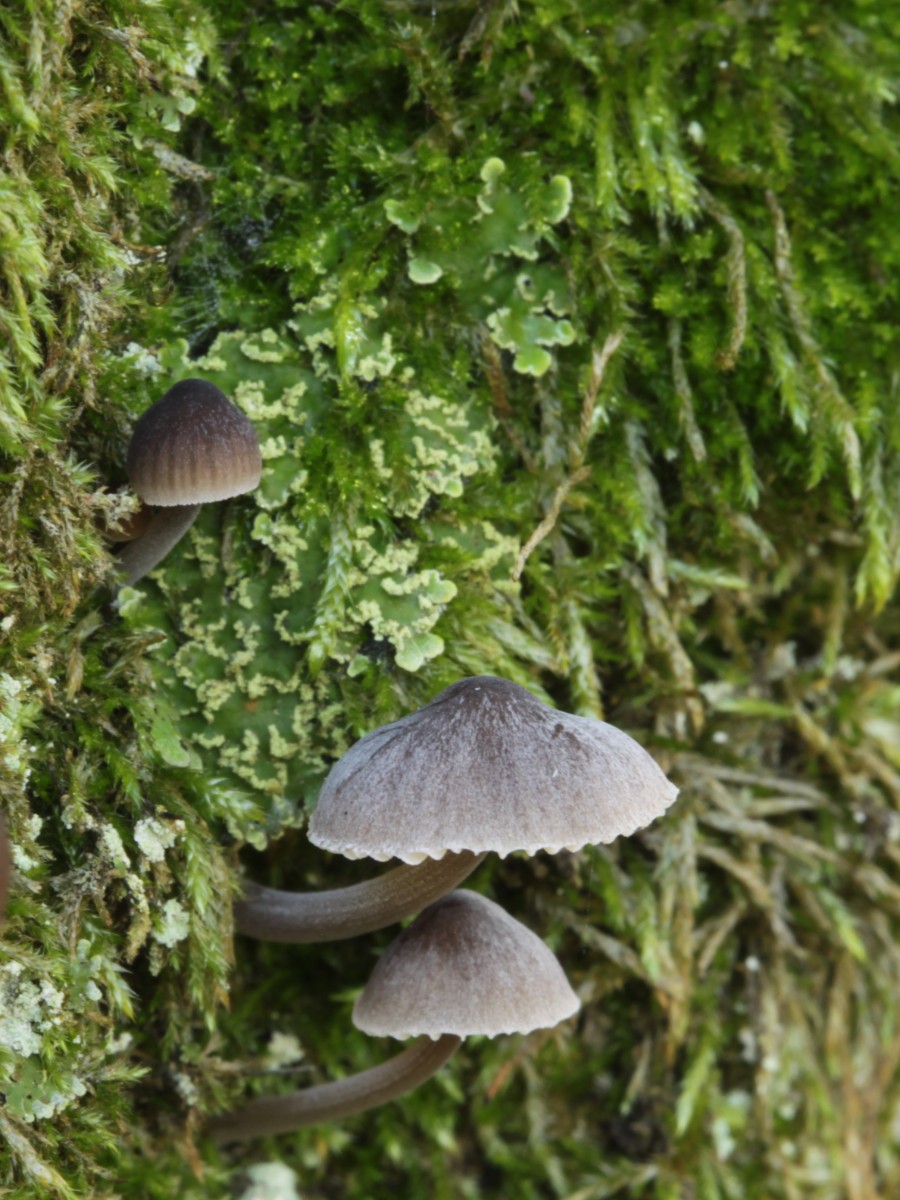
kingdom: Fungi
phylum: Basidiomycota
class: Agaricomycetes
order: Agaricales
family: Mycenaceae
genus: Mycena
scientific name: Mycena erubescens
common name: galde-huesvamp
